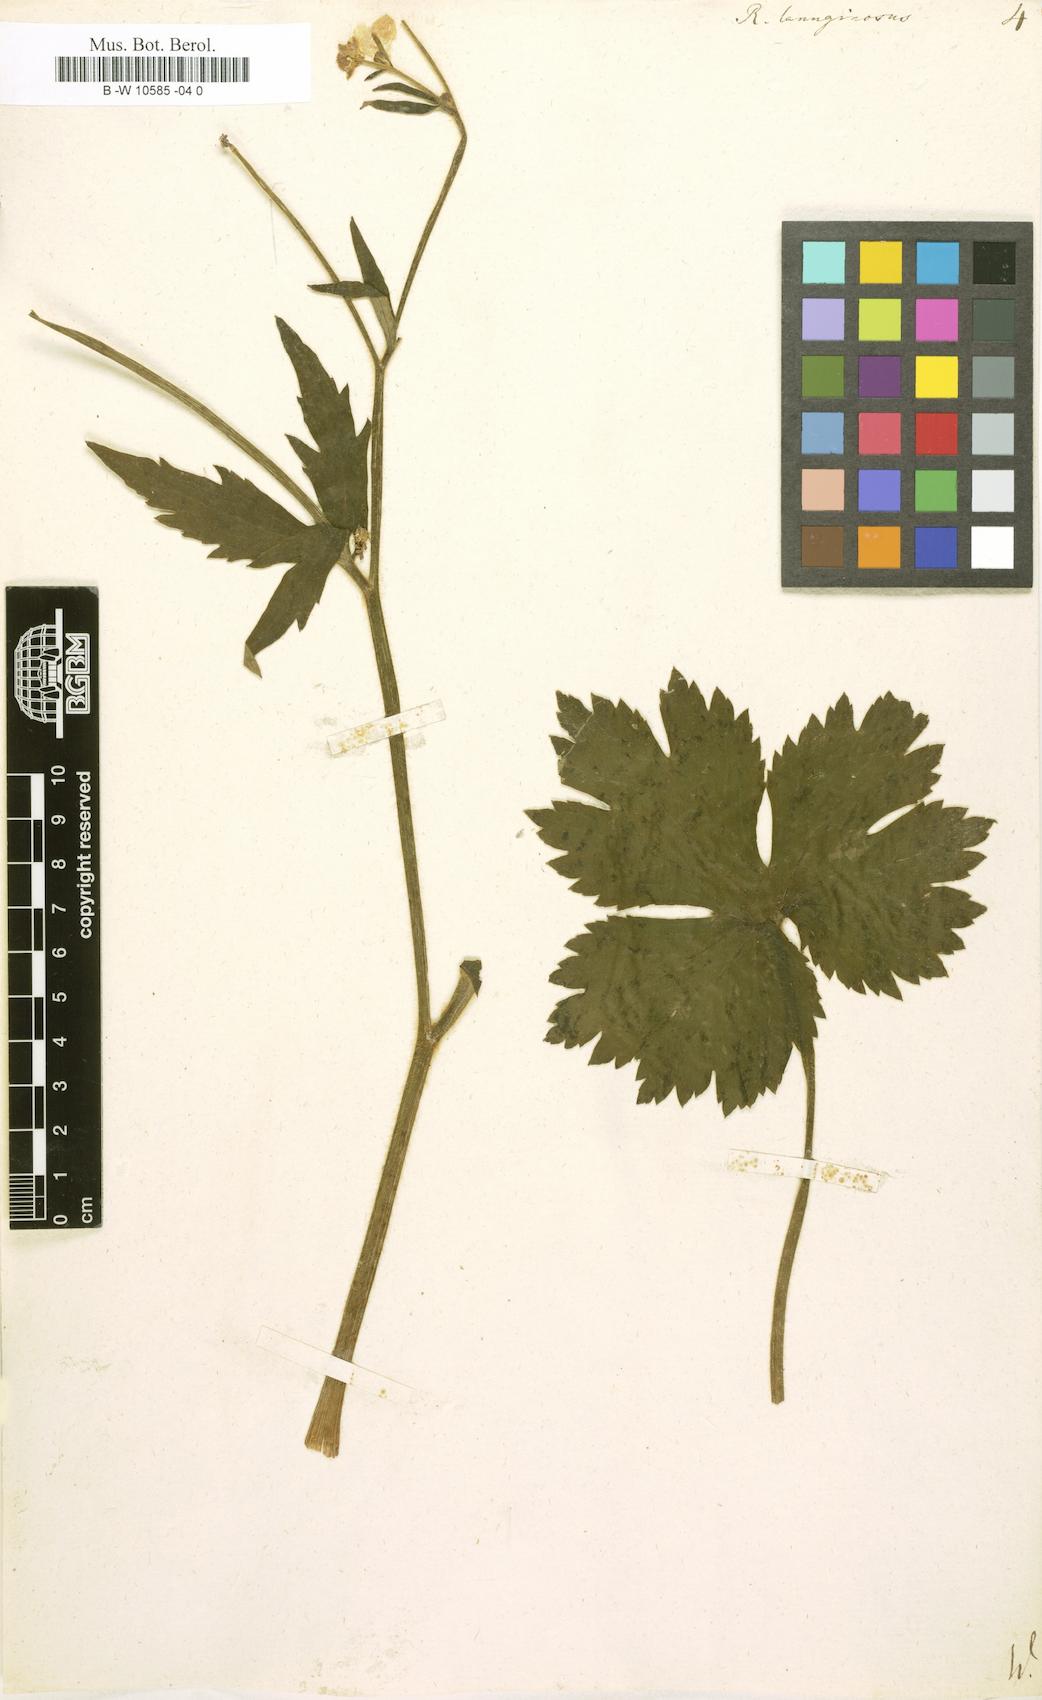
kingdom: Plantae
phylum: Tracheophyta
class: Magnoliopsida
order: Ranunculales
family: Ranunculaceae
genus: Ranunculus
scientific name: Ranunculus lanuginosus
